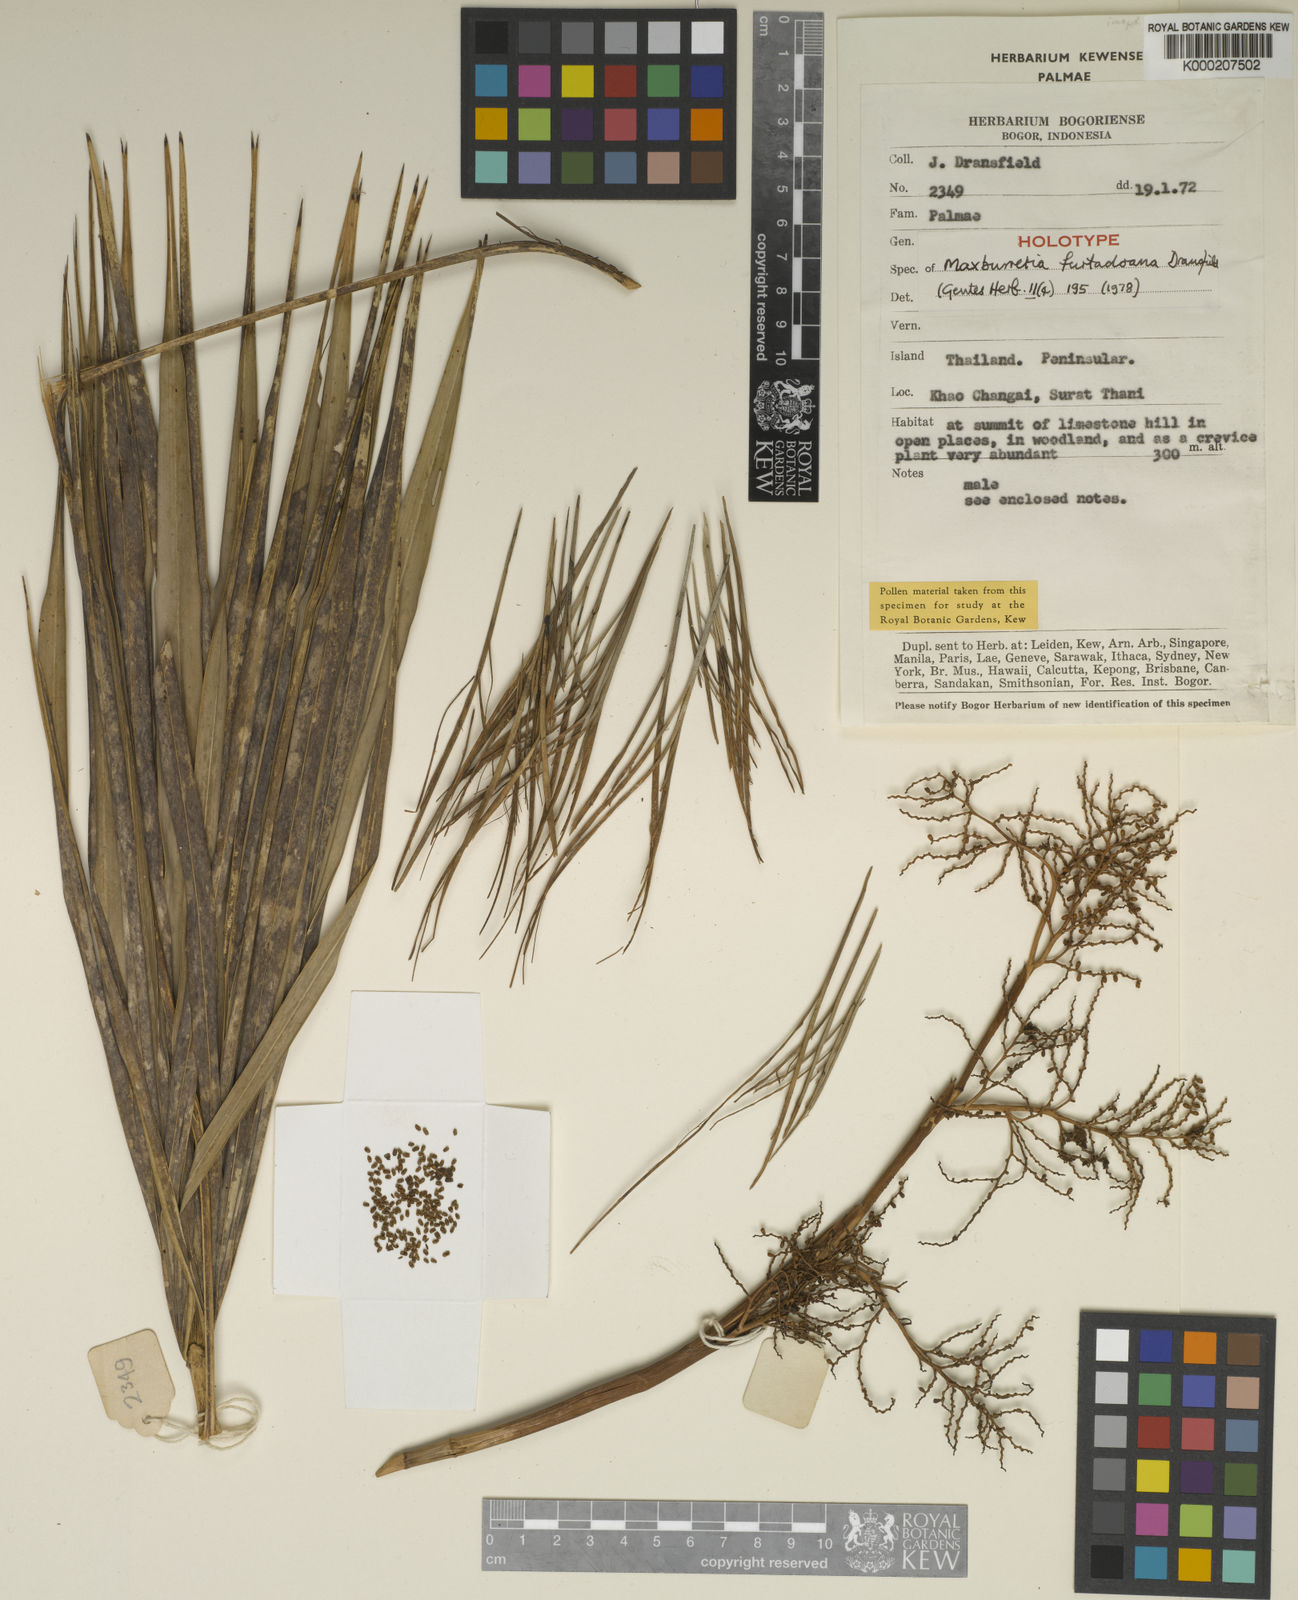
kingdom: Plantae
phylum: Tracheophyta
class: Liliopsida
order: Arecales
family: Arecaceae
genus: Maxburretia
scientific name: Maxburretia furtadoana
